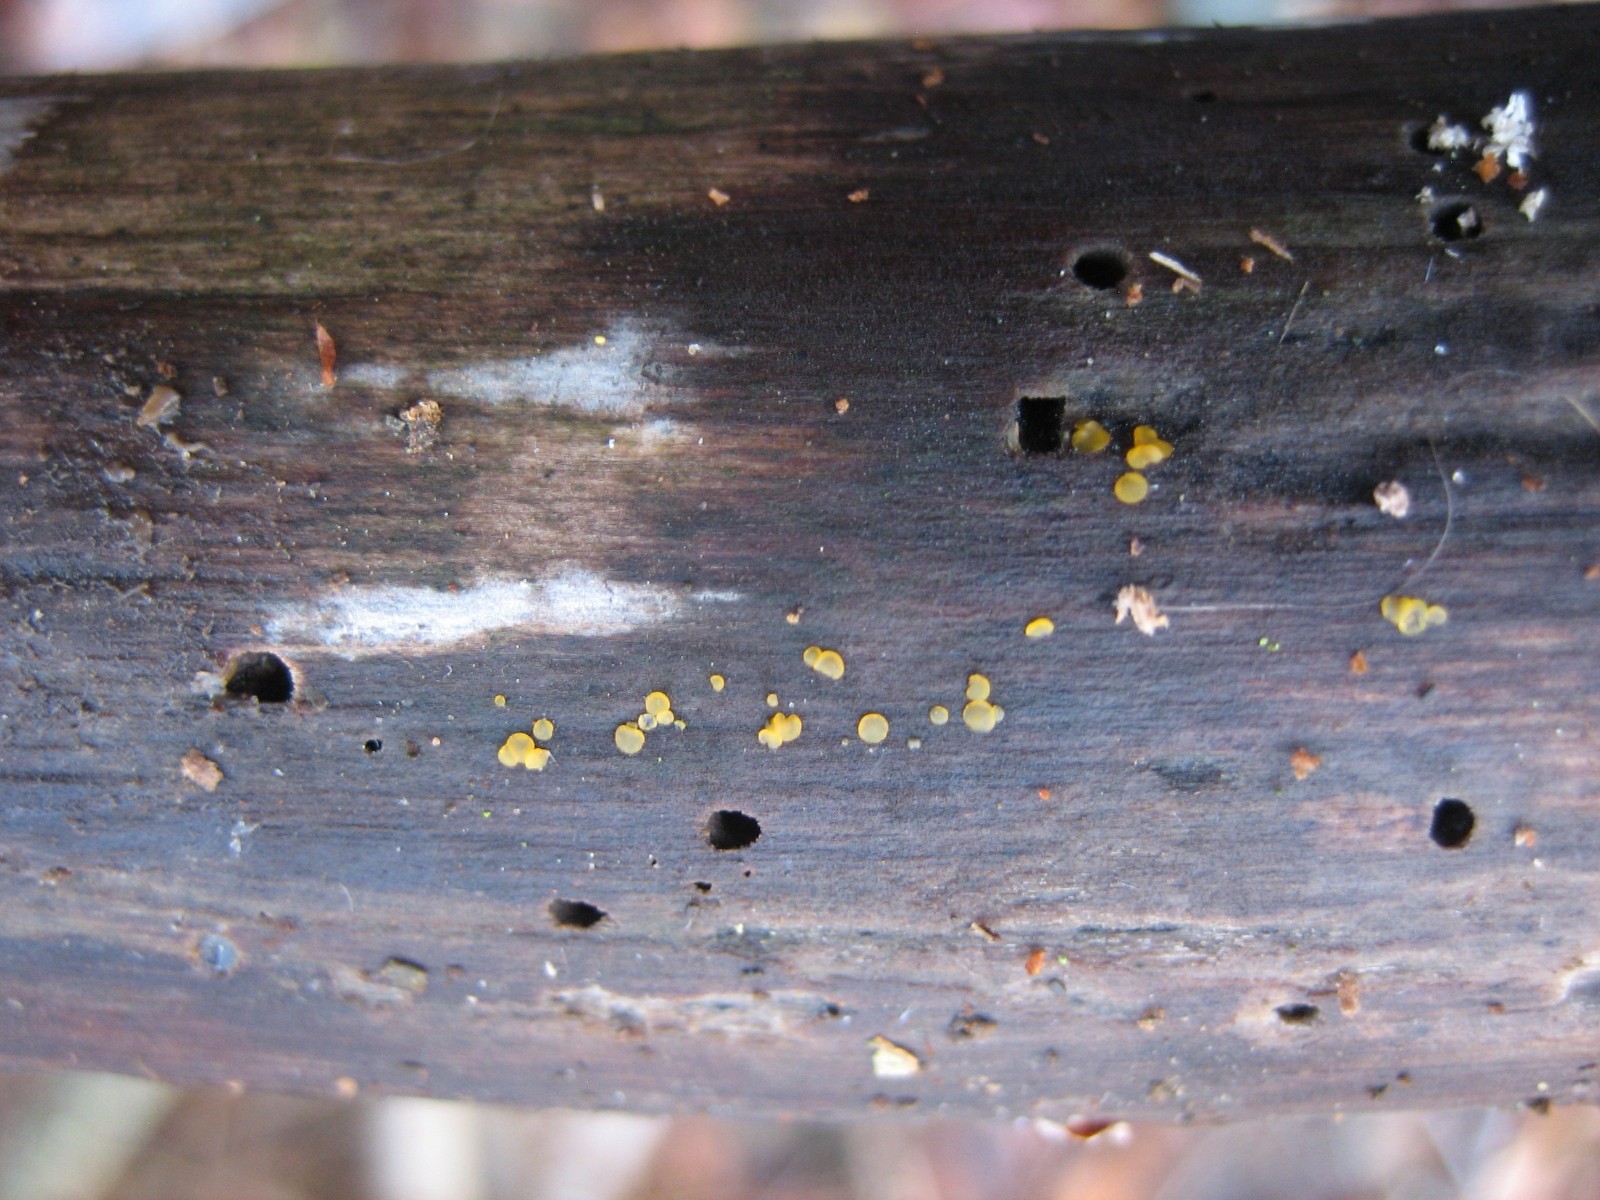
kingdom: Fungi
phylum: Ascomycota
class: Orbiliomycetes
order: Orbiliales
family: Orbiliaceae
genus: Orbilia
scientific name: Orbilia xanthostigma
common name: krumsporet voksskive
